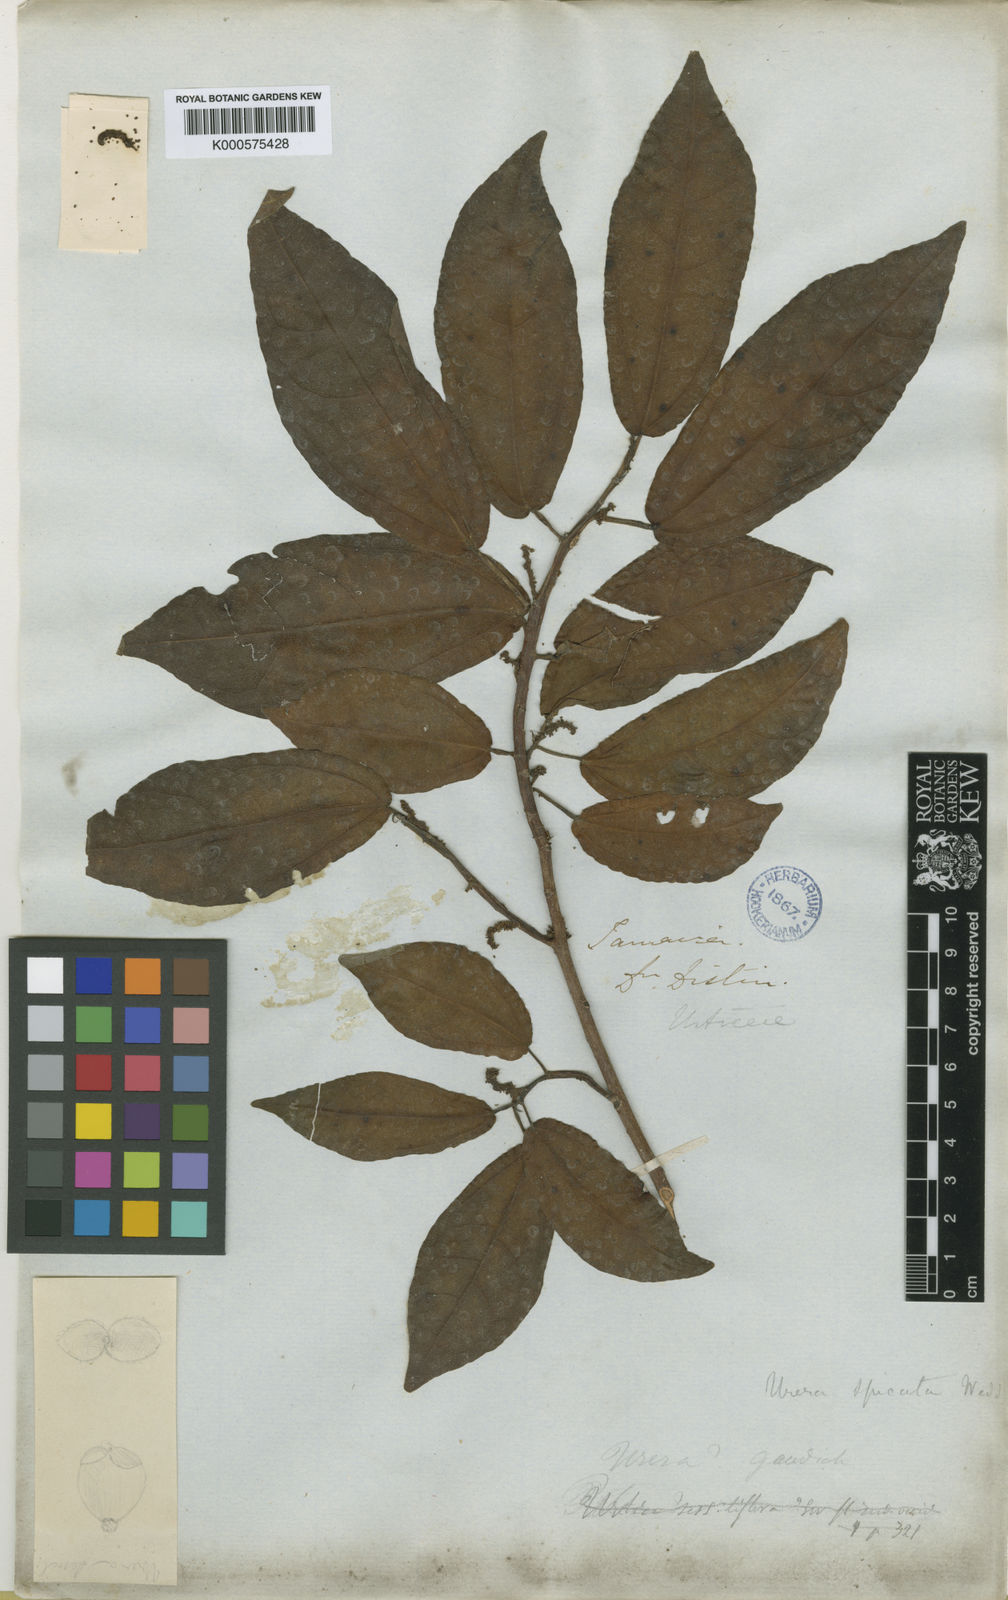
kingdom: Plantae
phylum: Tracheophyta
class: Magnoliopsida
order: Rosales
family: Urticaceae
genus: Gyrotaenia
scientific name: Gyrotaenia spicata
